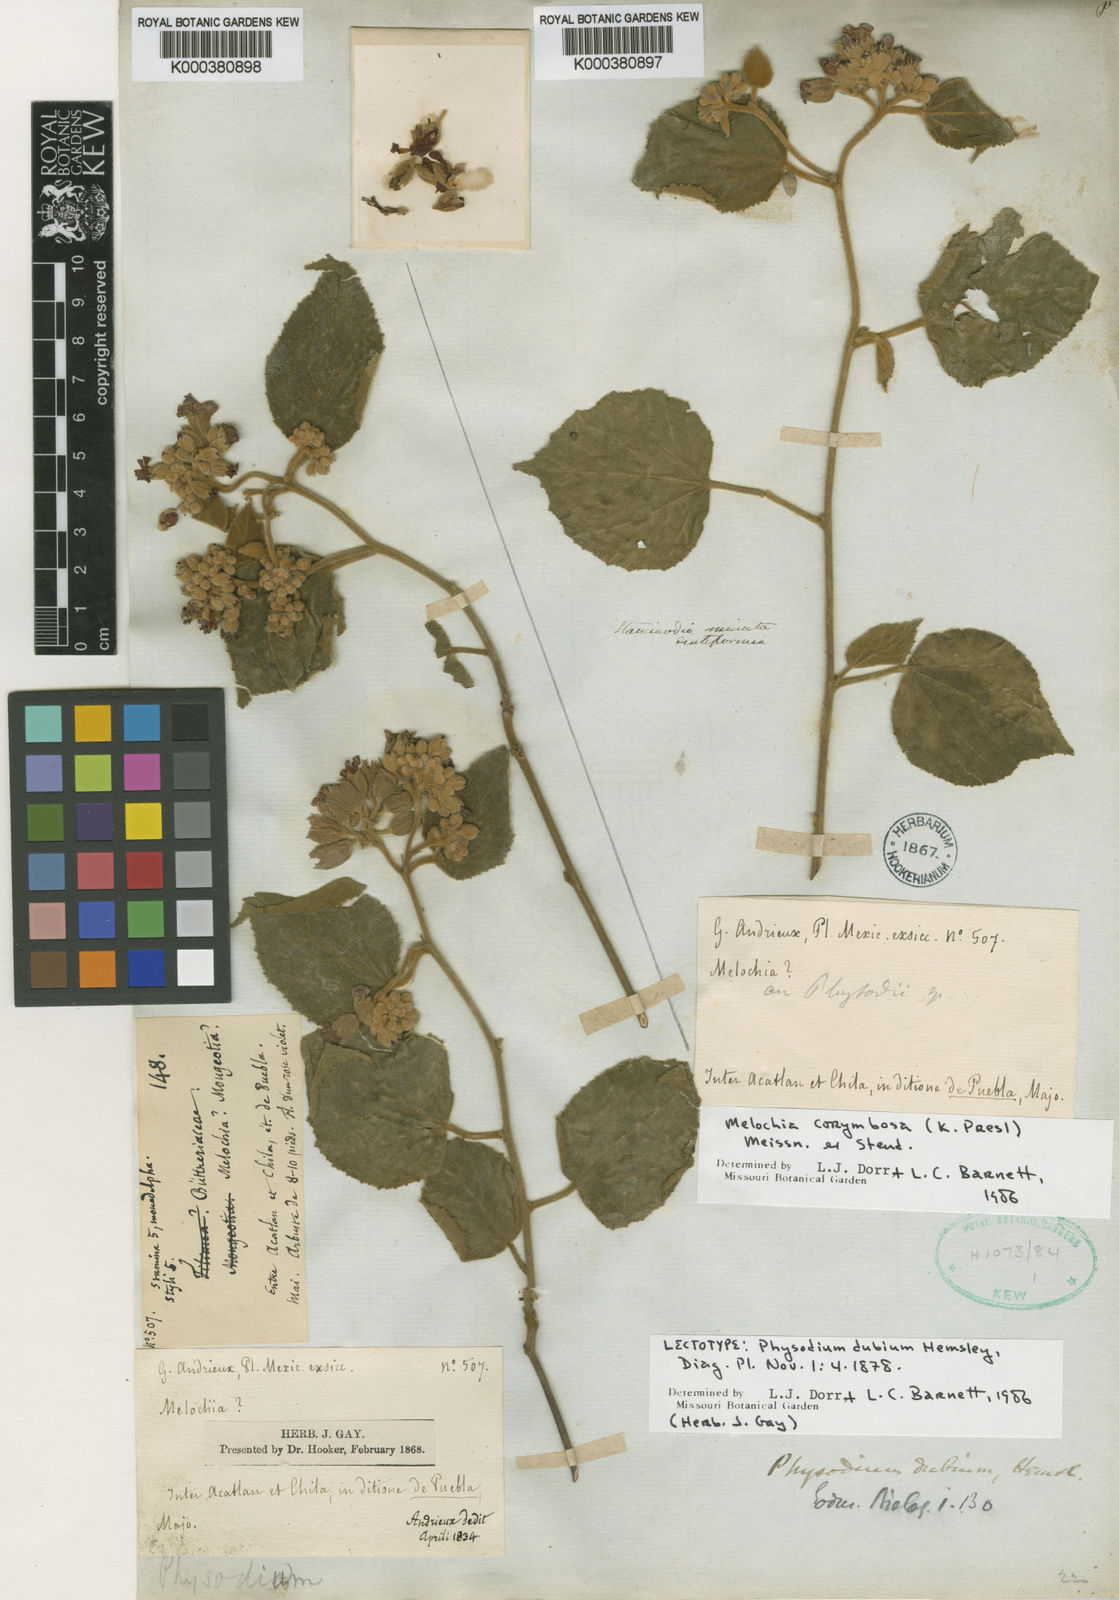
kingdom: Plantae
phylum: Tracheophyta
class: Magnoliopsida
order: Malvales
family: Malvaceae
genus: Physodium
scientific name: Physodium corymbosum
